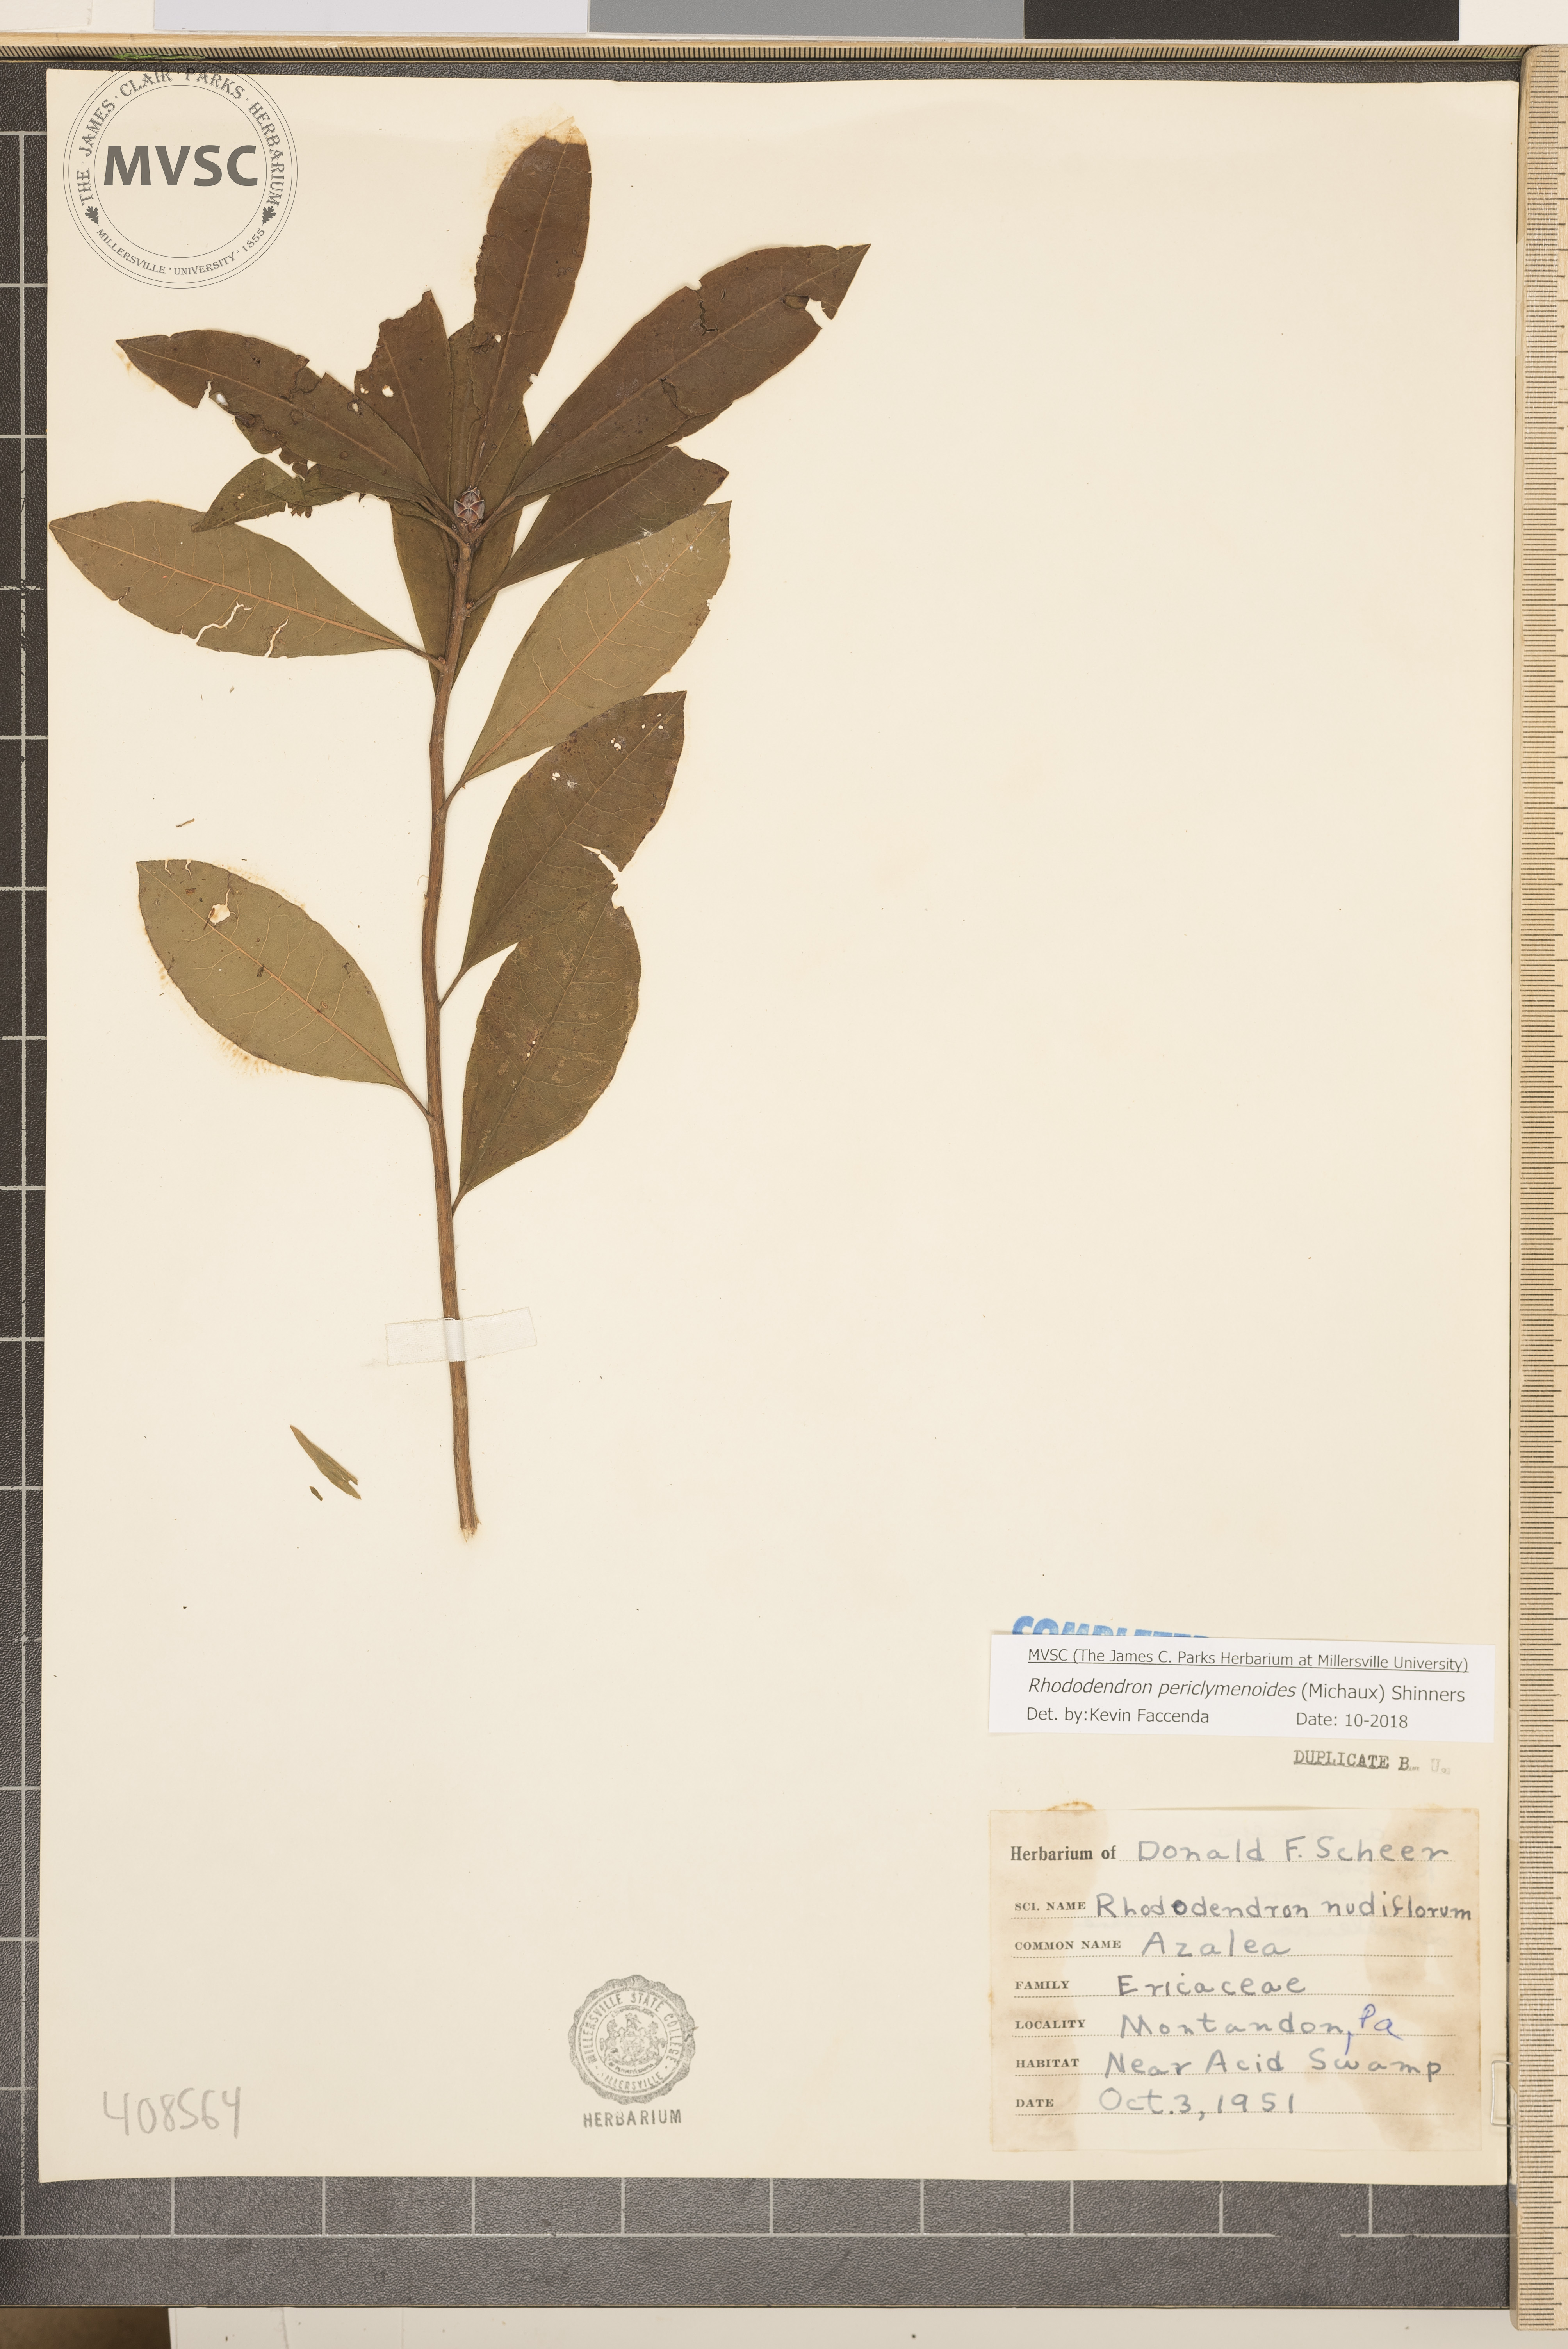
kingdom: Plantae
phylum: Tracheophyta
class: Magnoliopsida
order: Ericales
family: Ericaceae
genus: Rhododendron
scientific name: Rhododendron periclymenoides
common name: Election-pink
